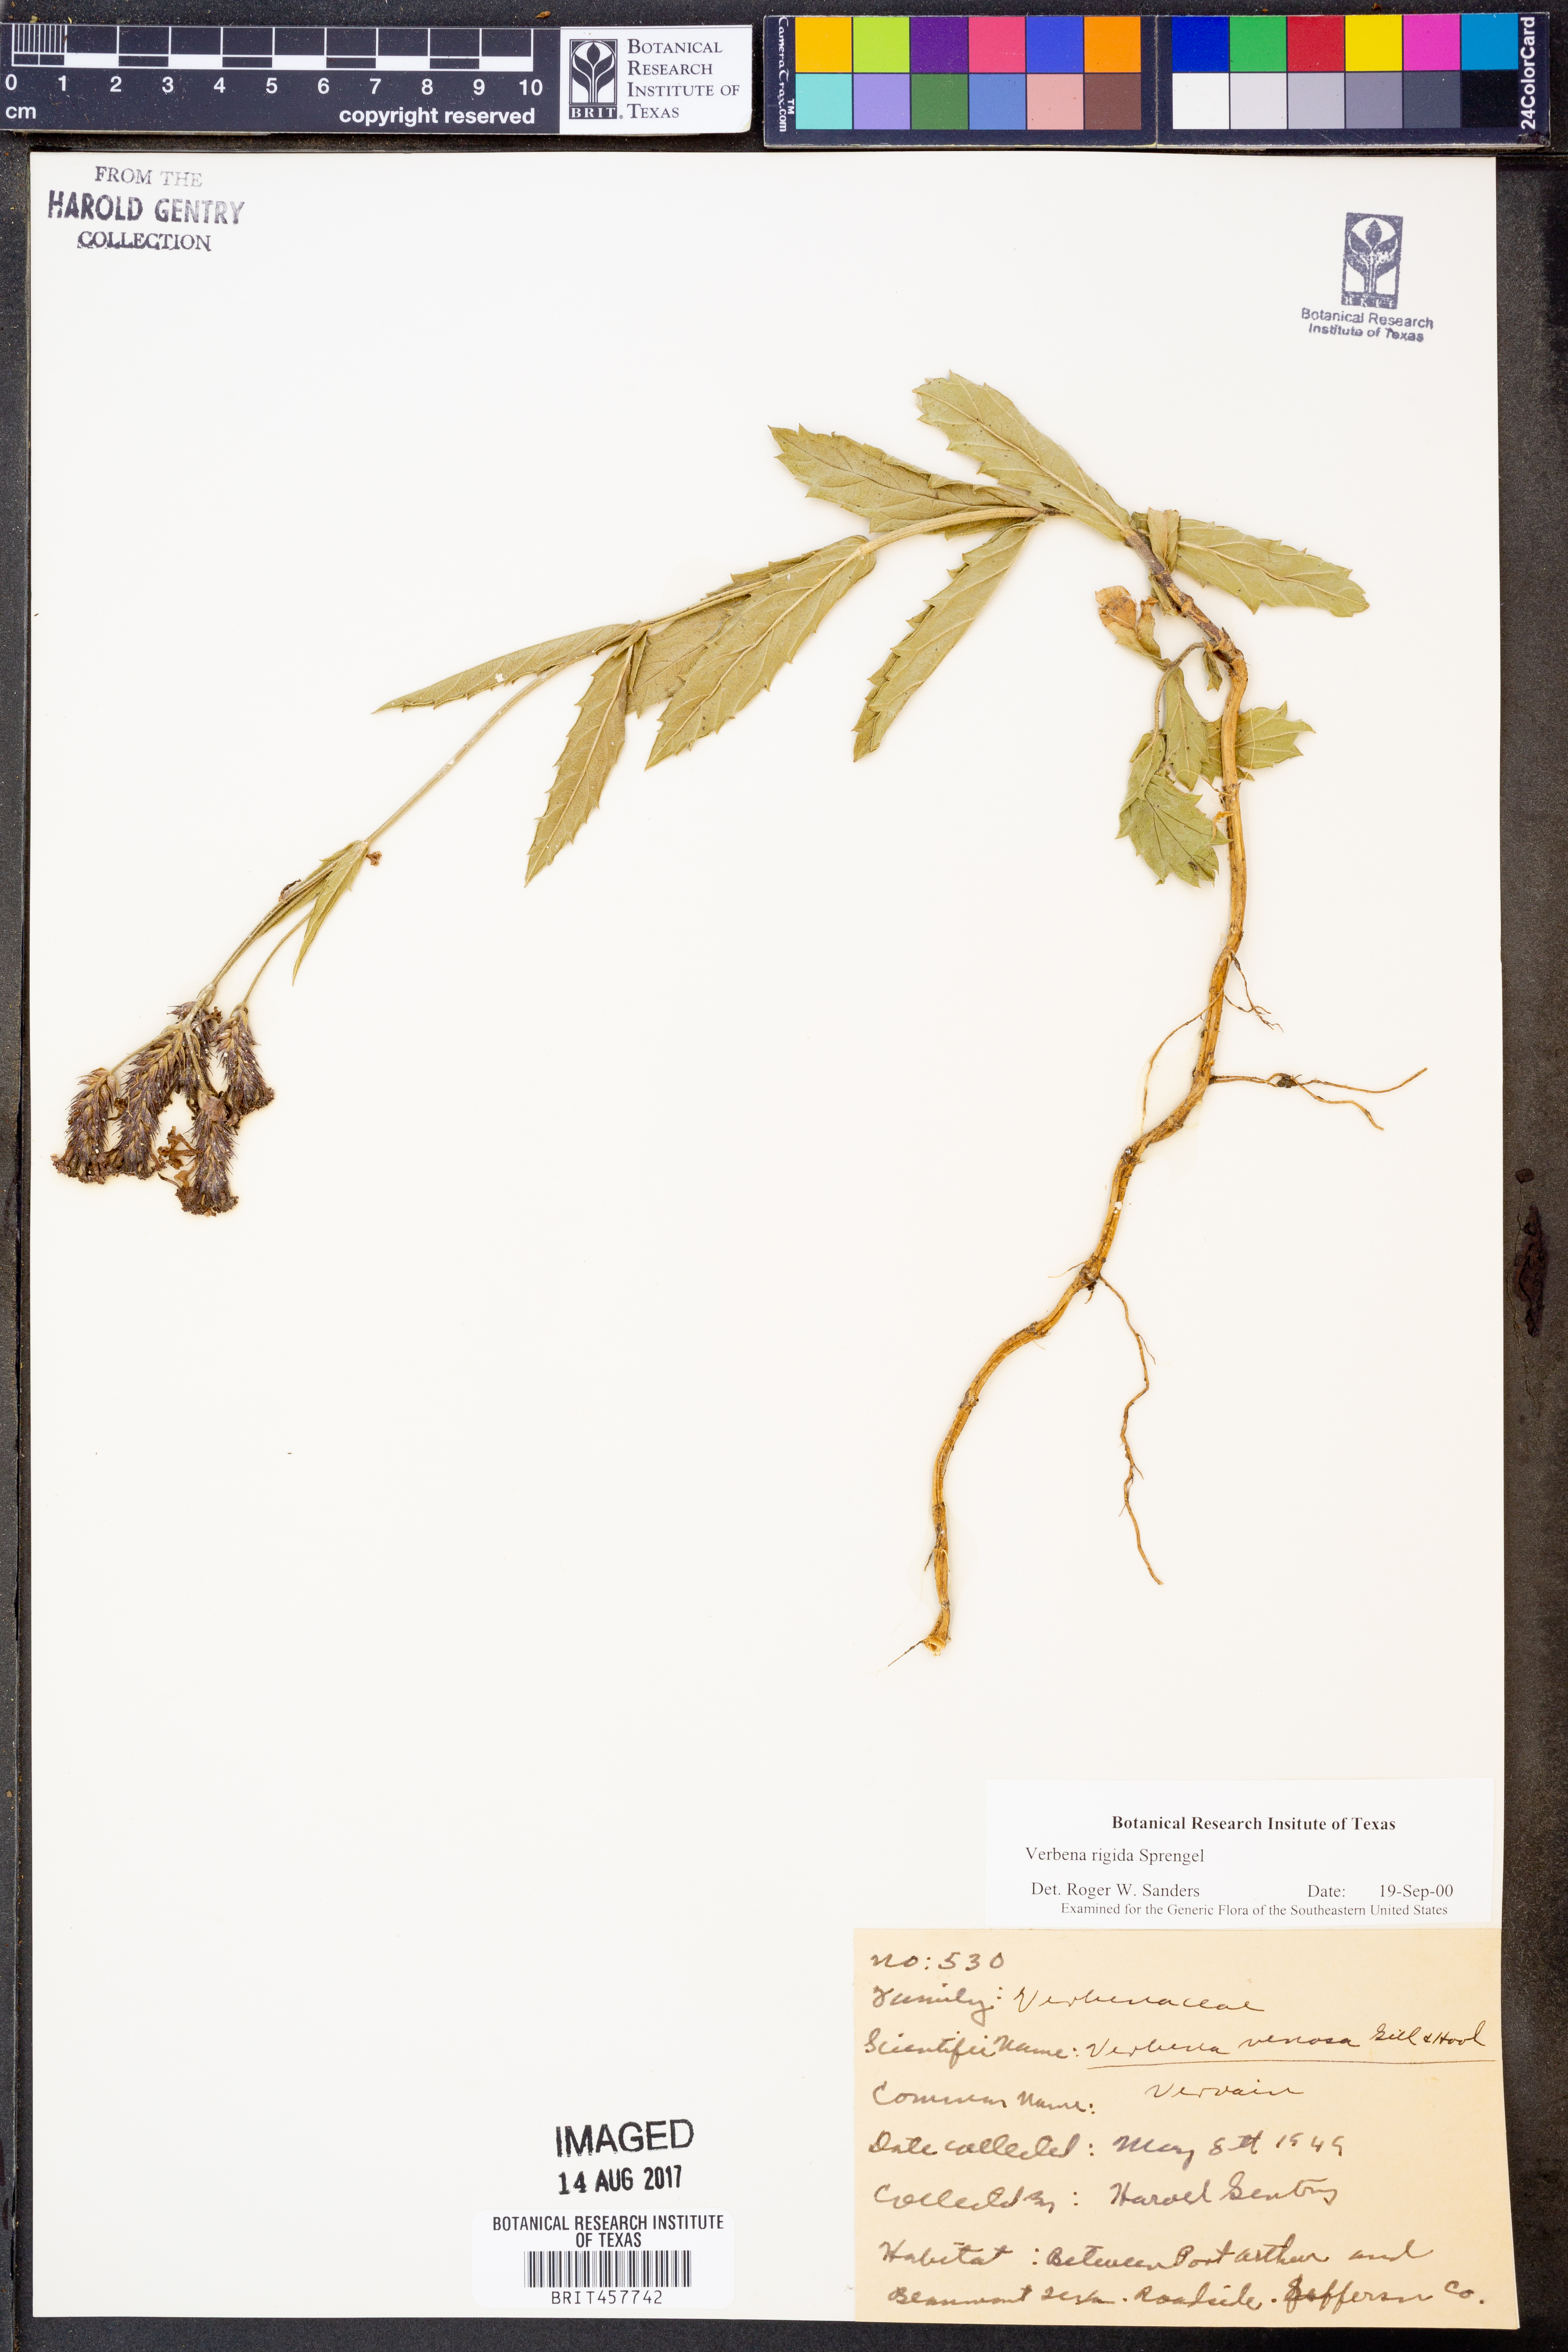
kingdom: Plantae
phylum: Tracheophyta
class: Magnoliopsida
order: Lamiales
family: Verbenaceae
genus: Verbena
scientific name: Verbena rigida
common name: Slender vervain
